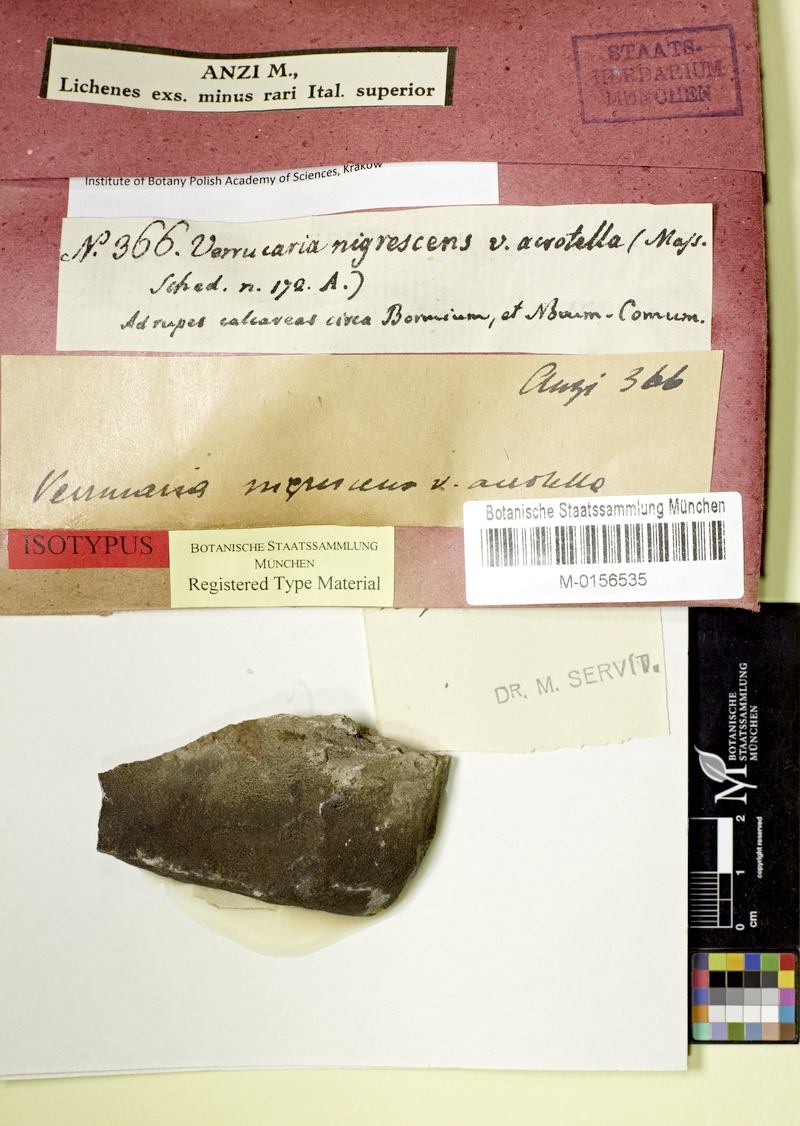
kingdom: Fungi
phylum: Ascomycota
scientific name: Ascomycota
